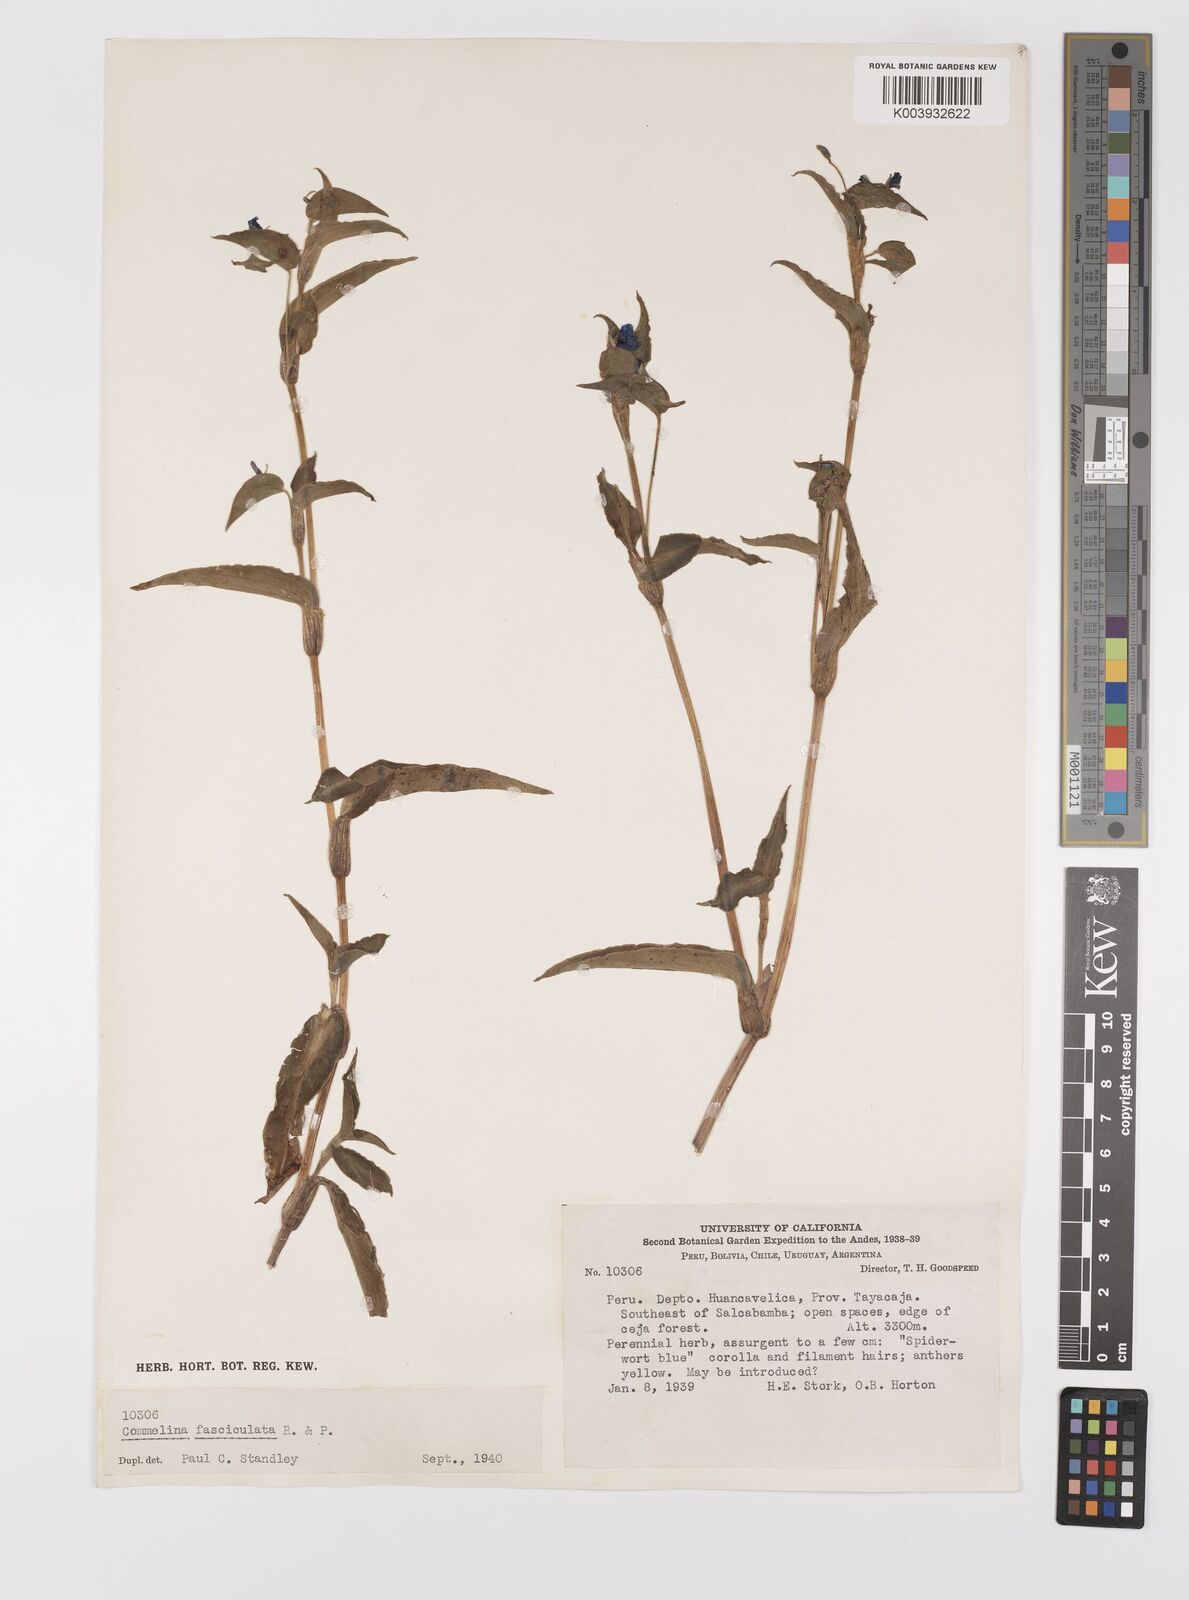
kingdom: Plantae
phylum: Tracheophyta
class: Liliopsida
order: Commelinales
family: Commelinaceae
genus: Commelina
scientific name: Commelina tuberosa
